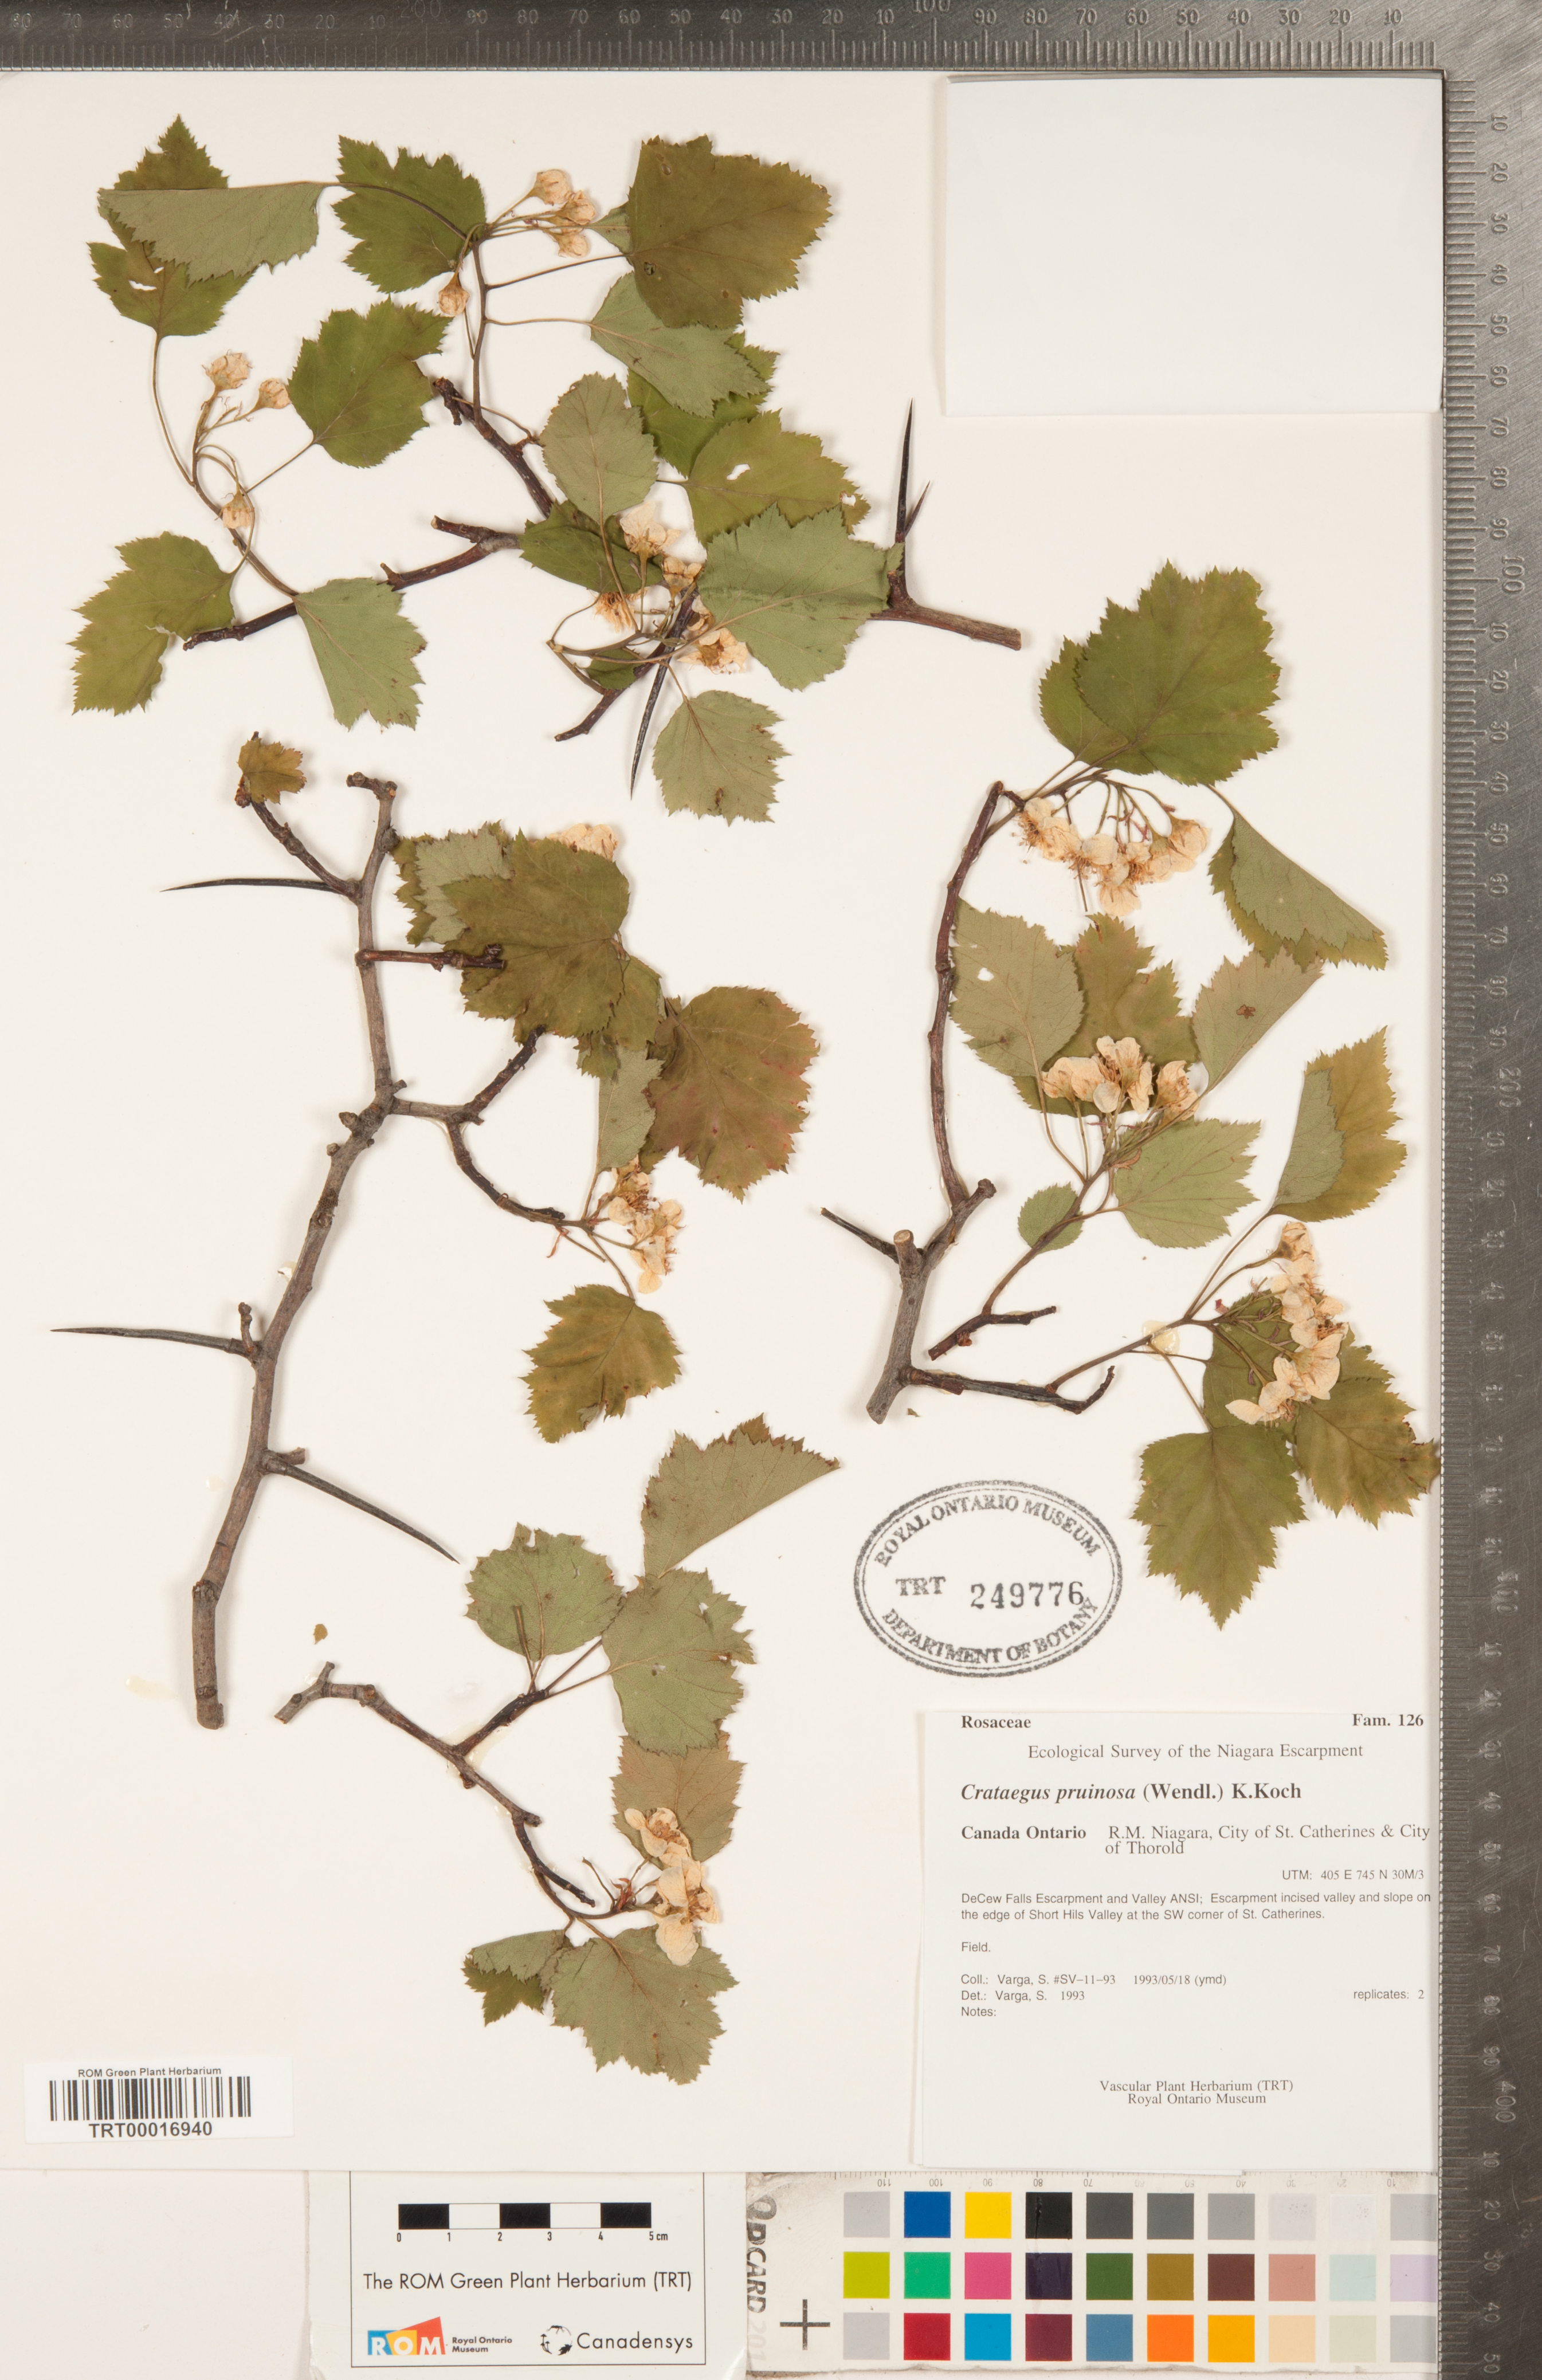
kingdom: Plantae
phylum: Tracheophyta
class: Magnoliopsida
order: Rosales
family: Rosaceae
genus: Crataegus
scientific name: Crataegus pruinosa
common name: Waxy-fruit hawthorn
